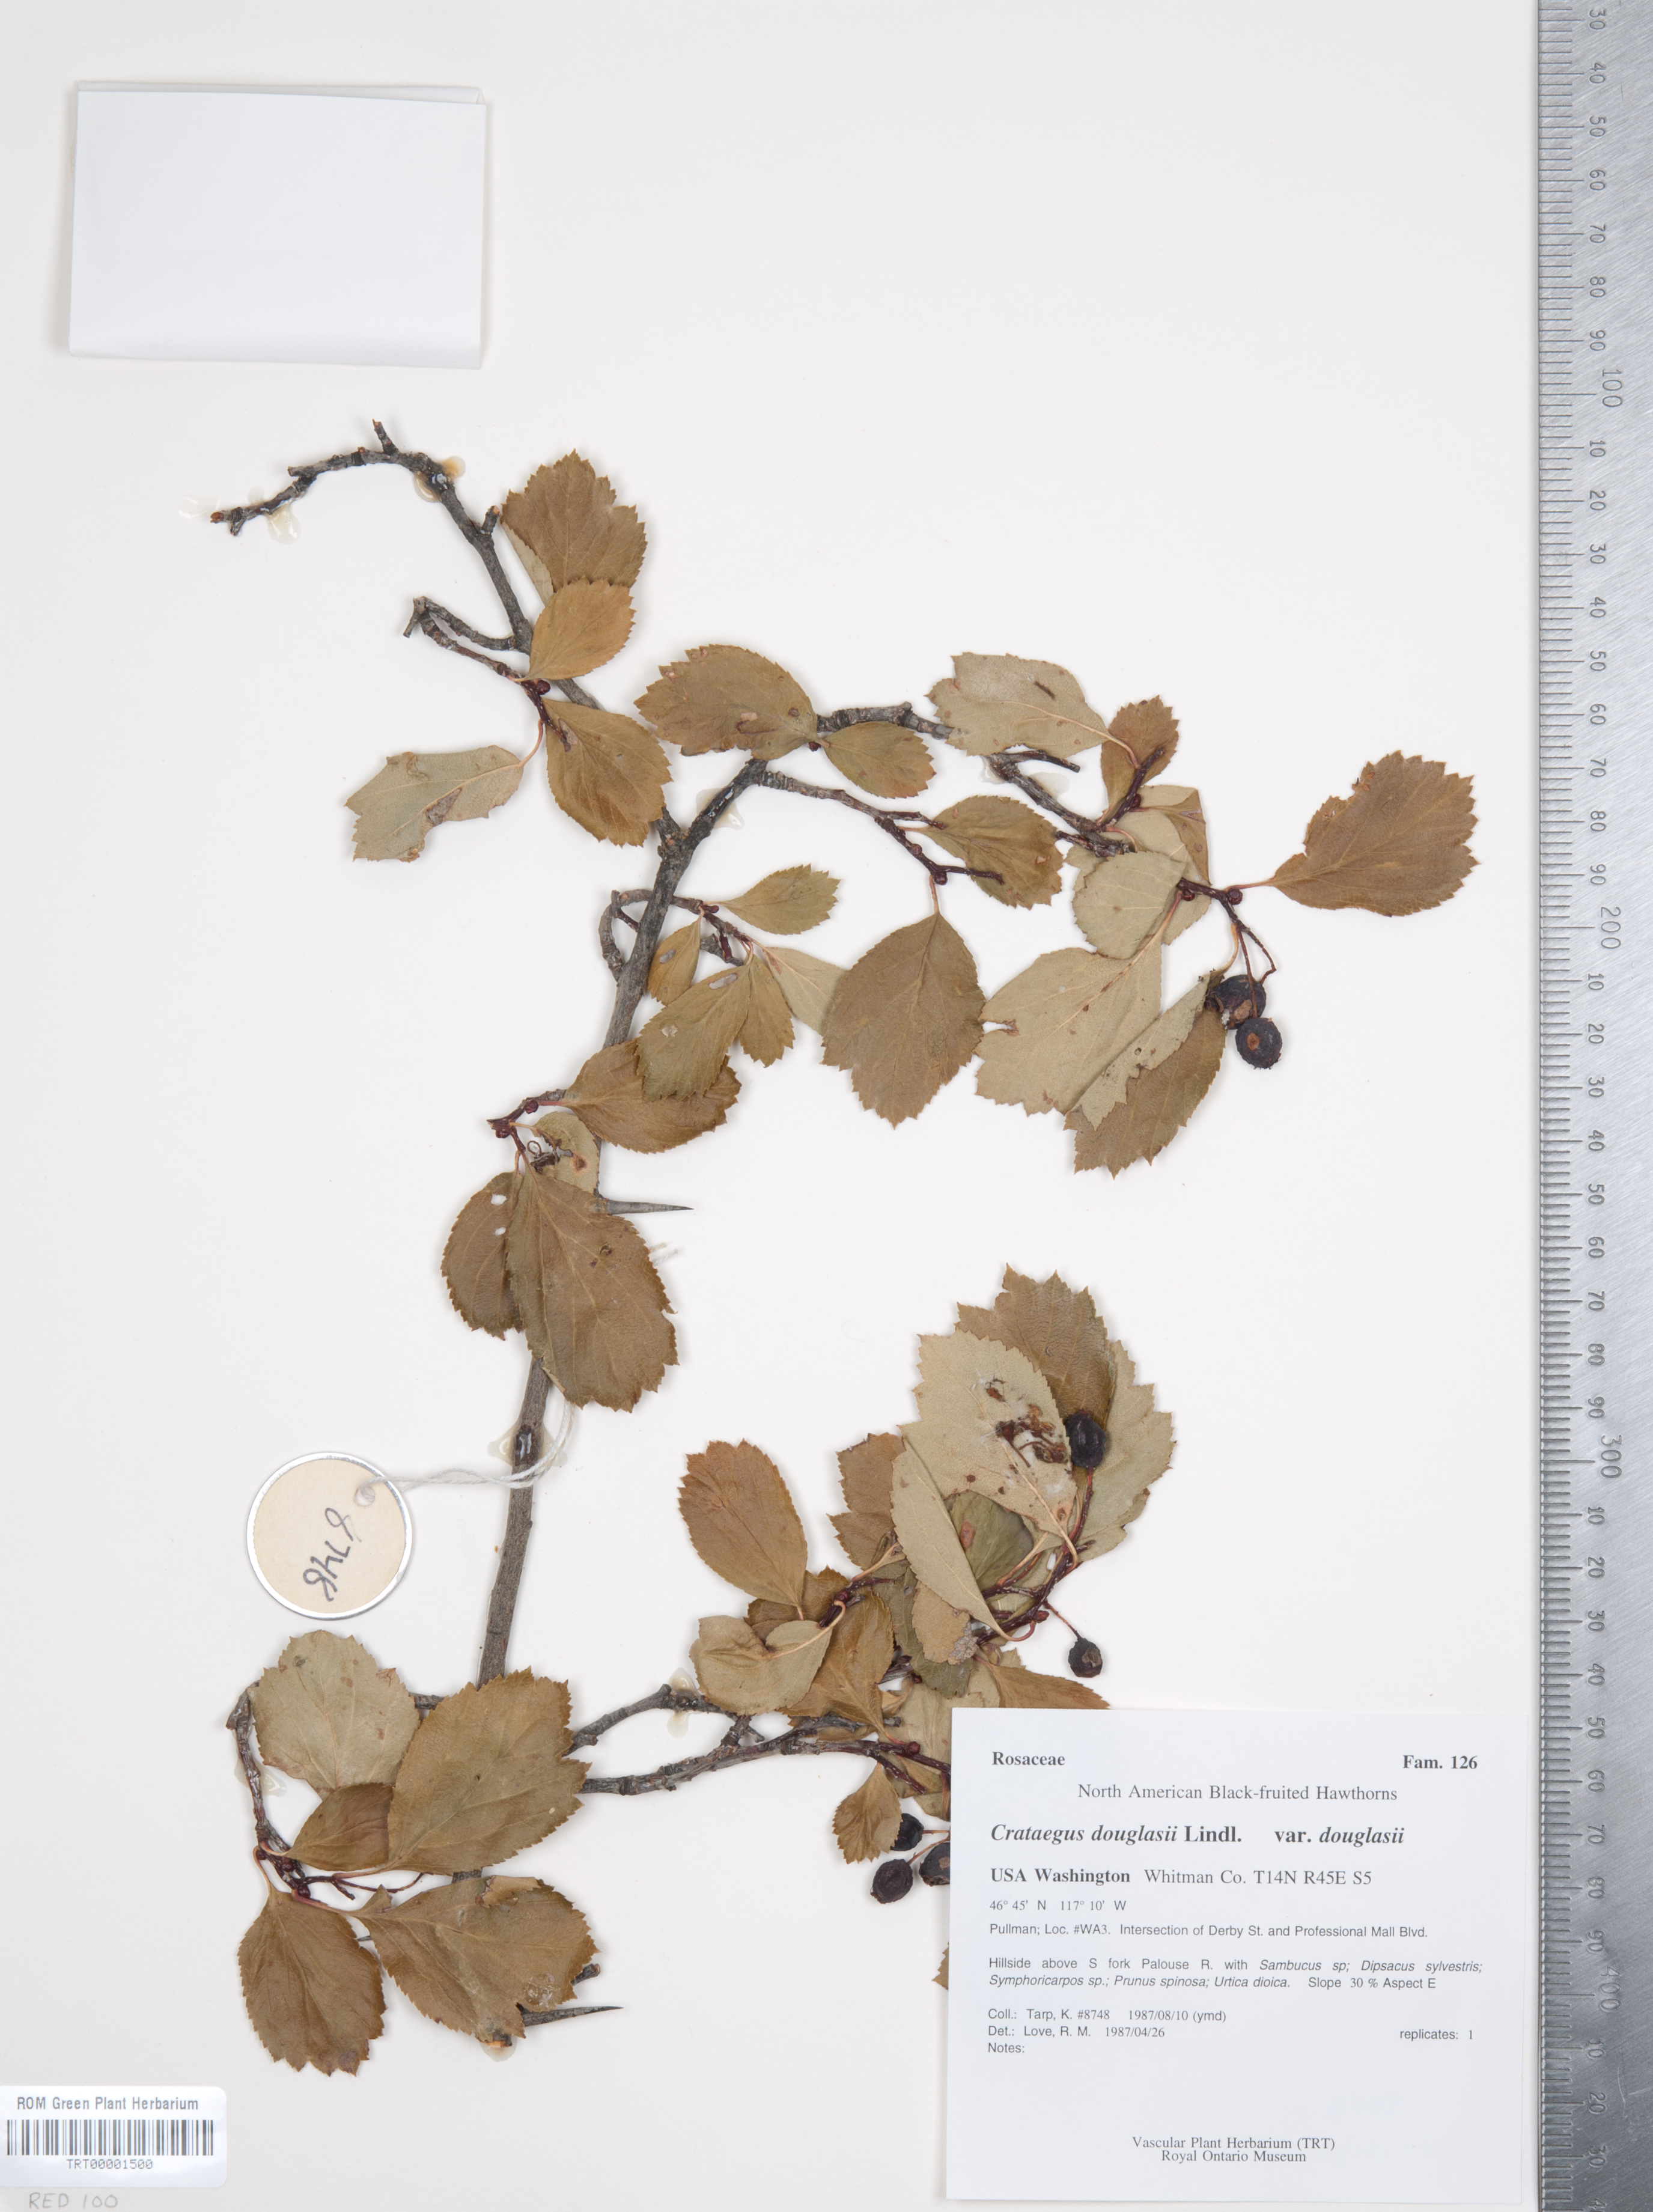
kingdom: Plantae
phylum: Tracheophyta
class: Magnoliopsida
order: Rosales
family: Rosaceae
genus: Crataegus
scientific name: Crataegus douglasii
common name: Black hawthorn
